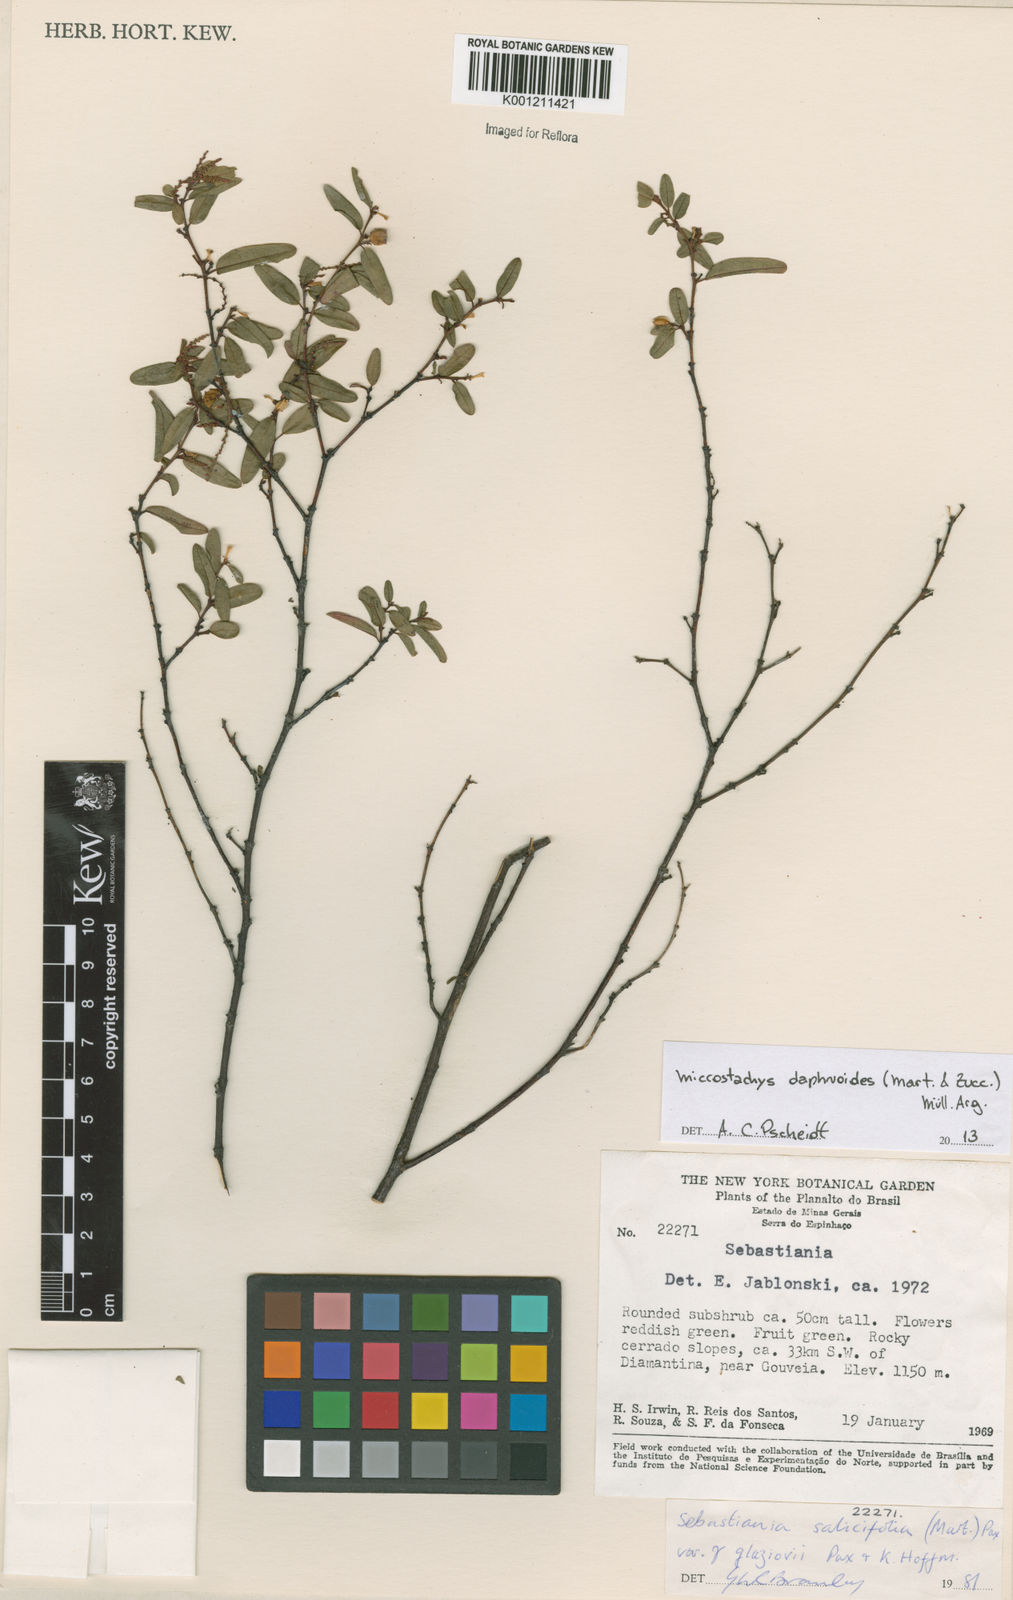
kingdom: Plantae
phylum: Tracheophyta
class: Magnoliopsida
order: Malpighiales
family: Euphorbiaceae
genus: Microstachys
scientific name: Microstachys
